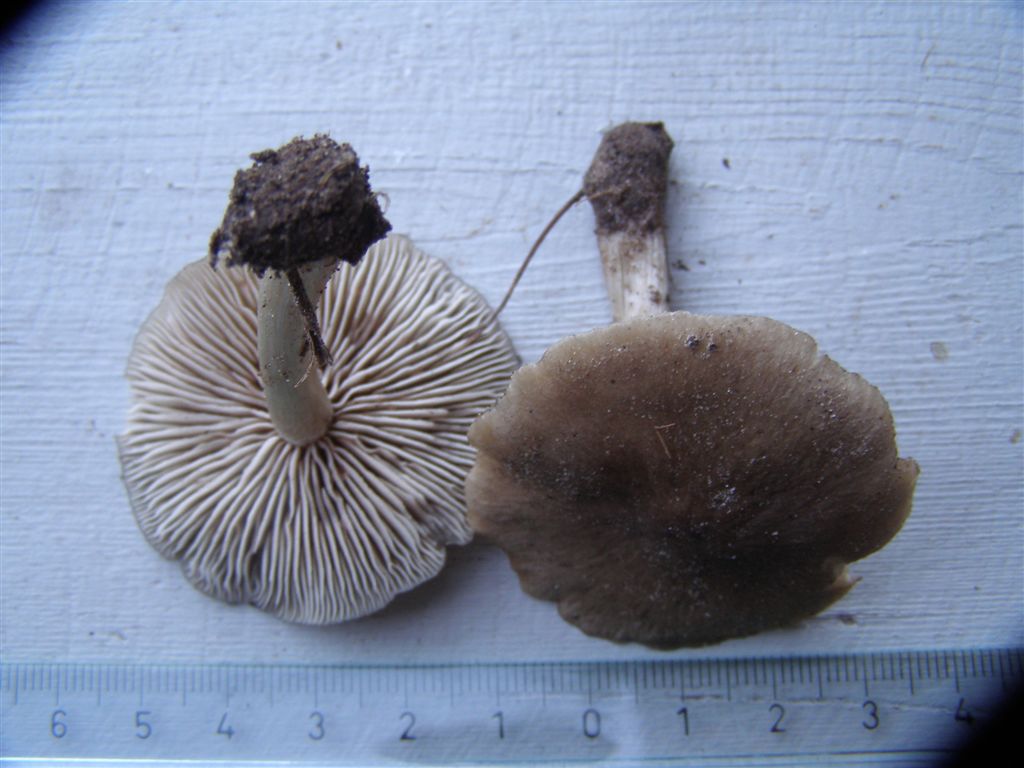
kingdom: Fungi
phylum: Basidiomycota
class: Agaricomycetes
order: Agaricales
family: Entolomataceae
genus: Entoloma
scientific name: Entoloma sordidulum
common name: smudsig rødblad
